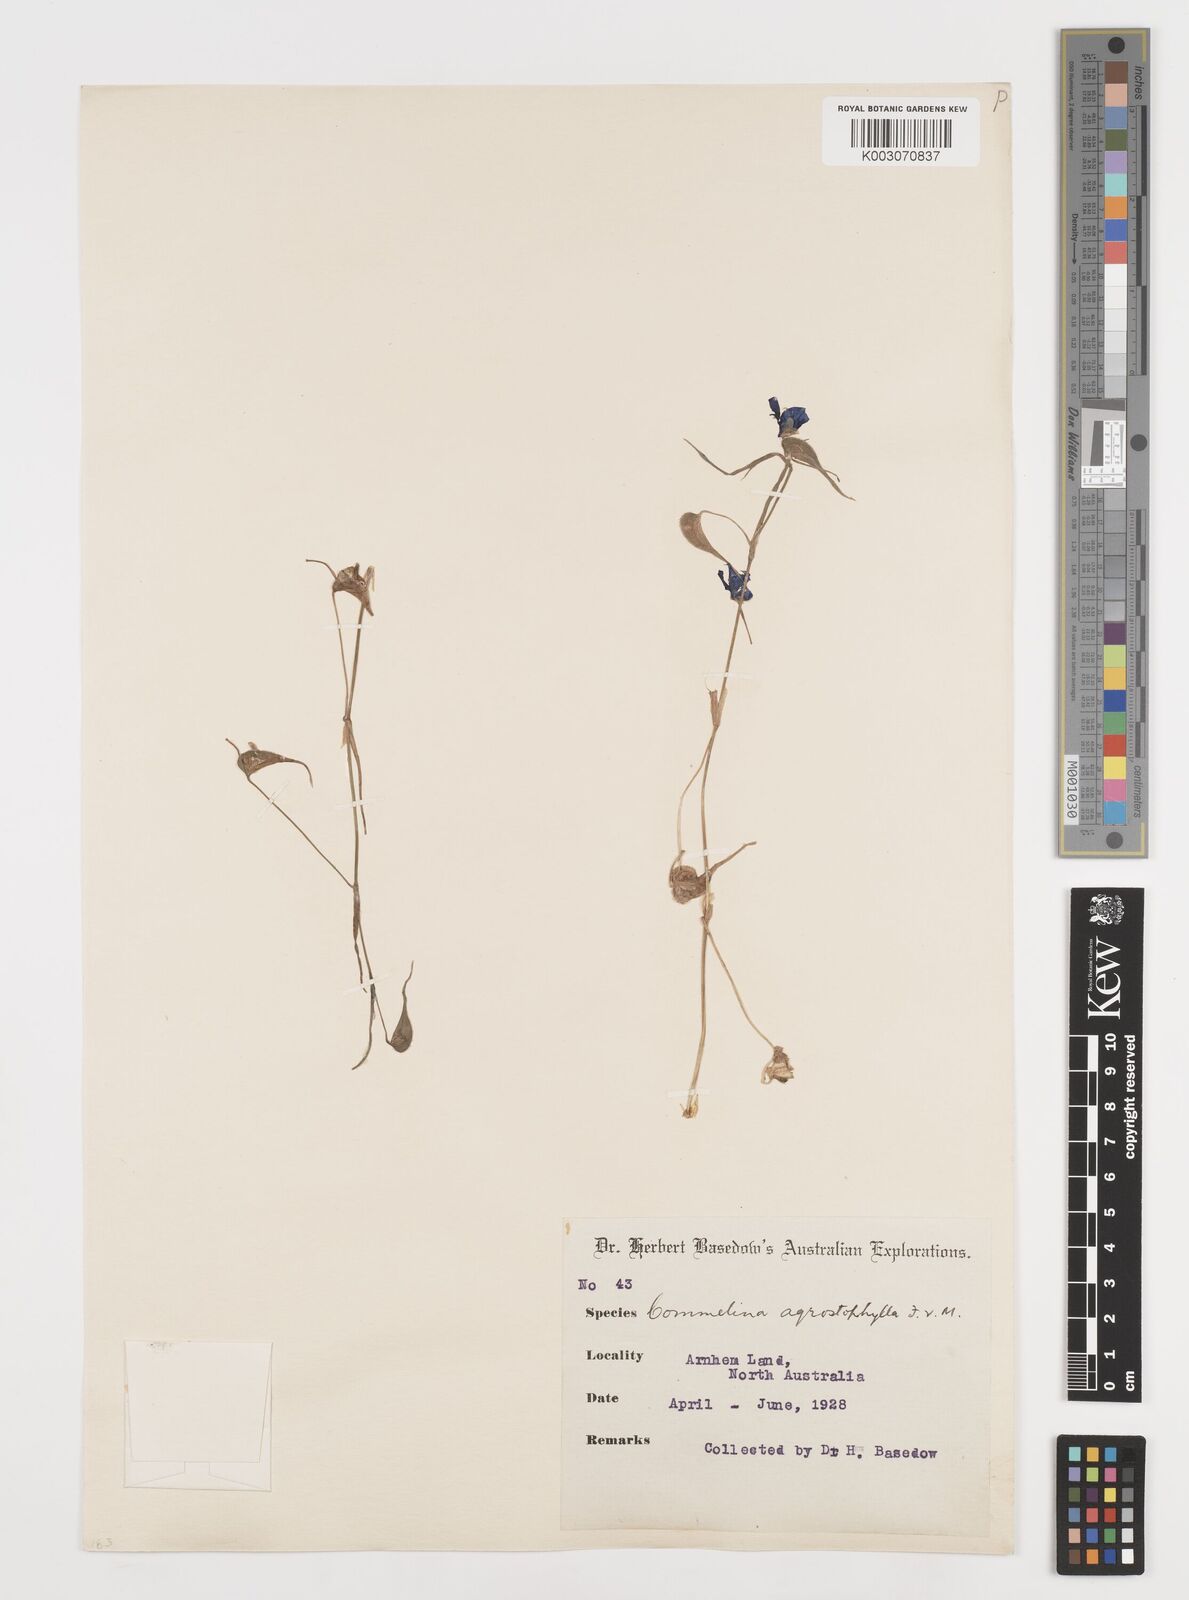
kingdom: Plantae
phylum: Tracheophyta
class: Liliopsida
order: Commelinales
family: Commelinaceae
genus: Commelina
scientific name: Commelina agrostophylla
